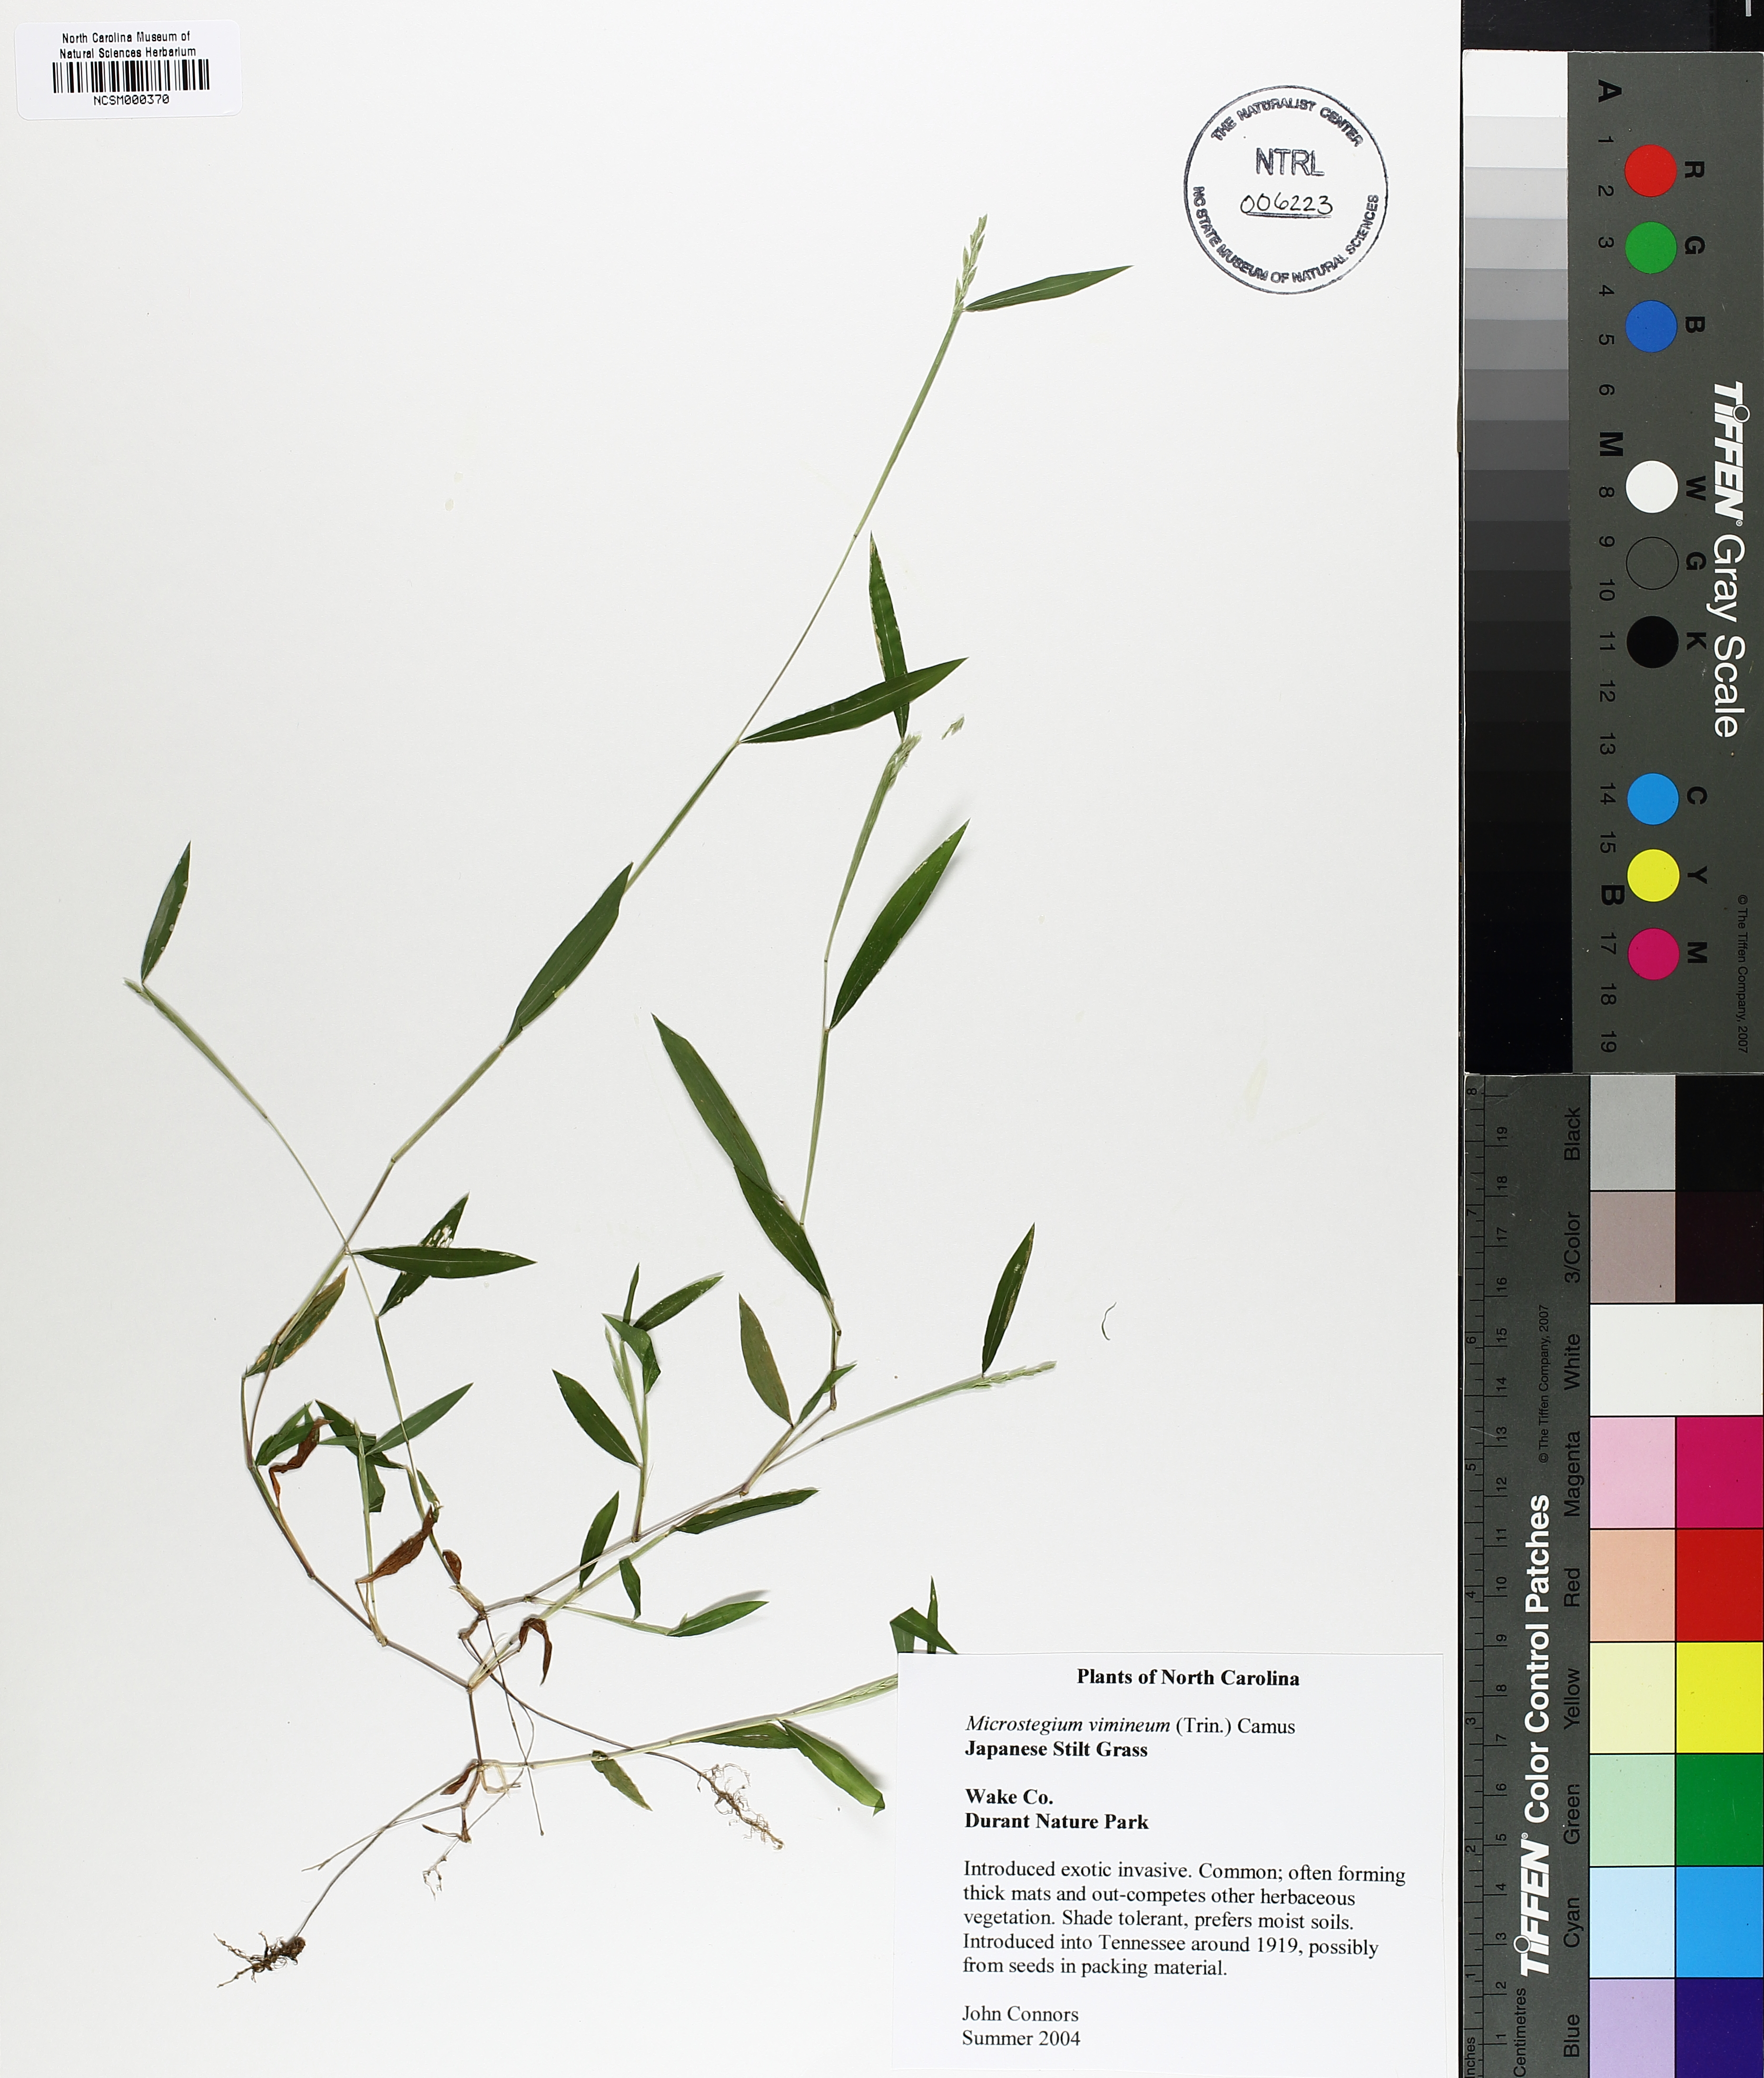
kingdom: Plantae
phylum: Tracheophyta
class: Liliopsida
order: Poales
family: Poaceae
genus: Microstegium
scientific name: Microstegium vimineum
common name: Japanese stiltgrass
